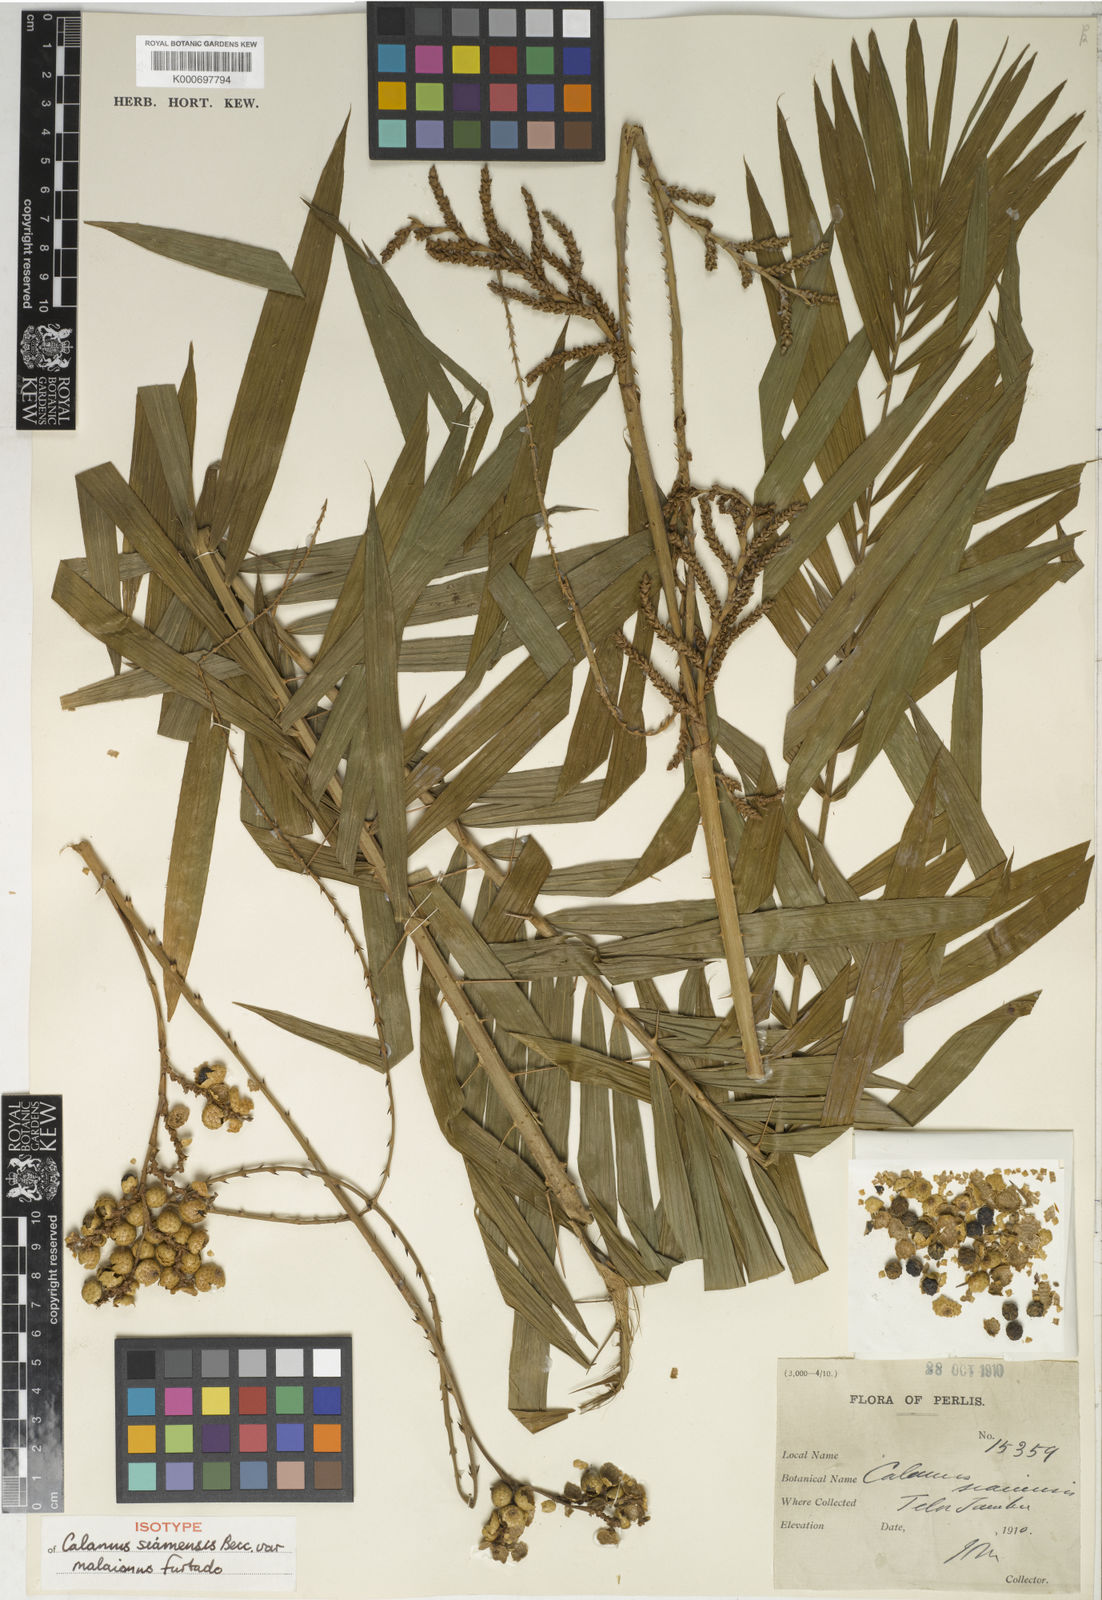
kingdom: Plantae
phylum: Tracheophyta
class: Liliopsida
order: Arecales
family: Arecaceae
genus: Calamus
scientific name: Calamus viminalis
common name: Osier-like rattan palm
